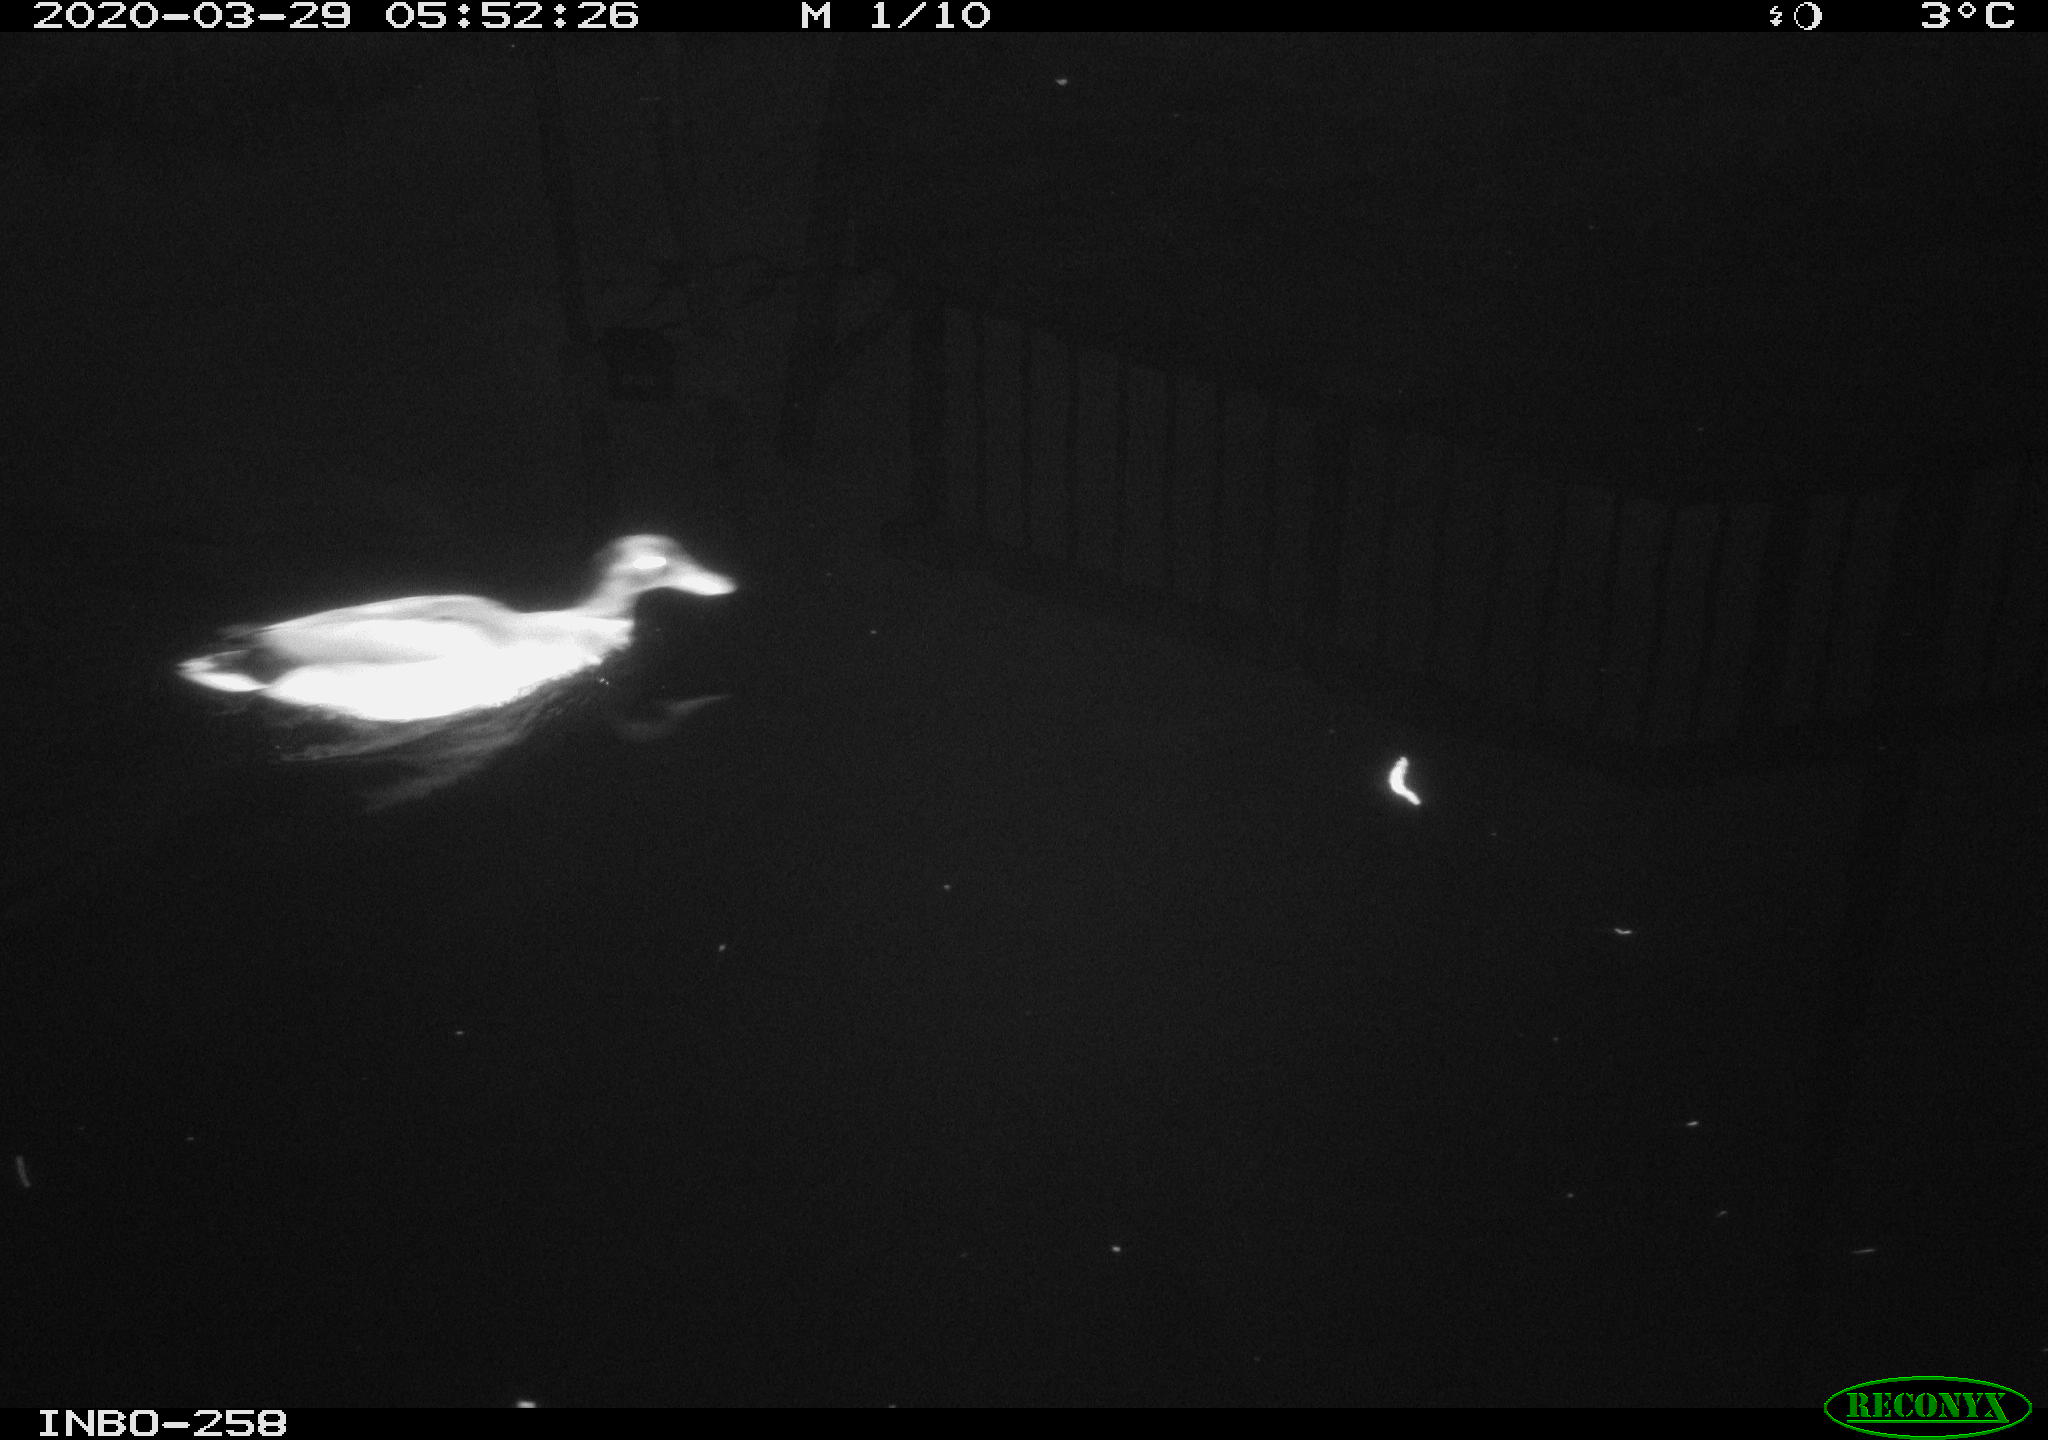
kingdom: Animalia
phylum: Chordata
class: Aves
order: Anseriformes
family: Anatidae
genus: Anas
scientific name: Anas platyrhynchos
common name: Mallard
